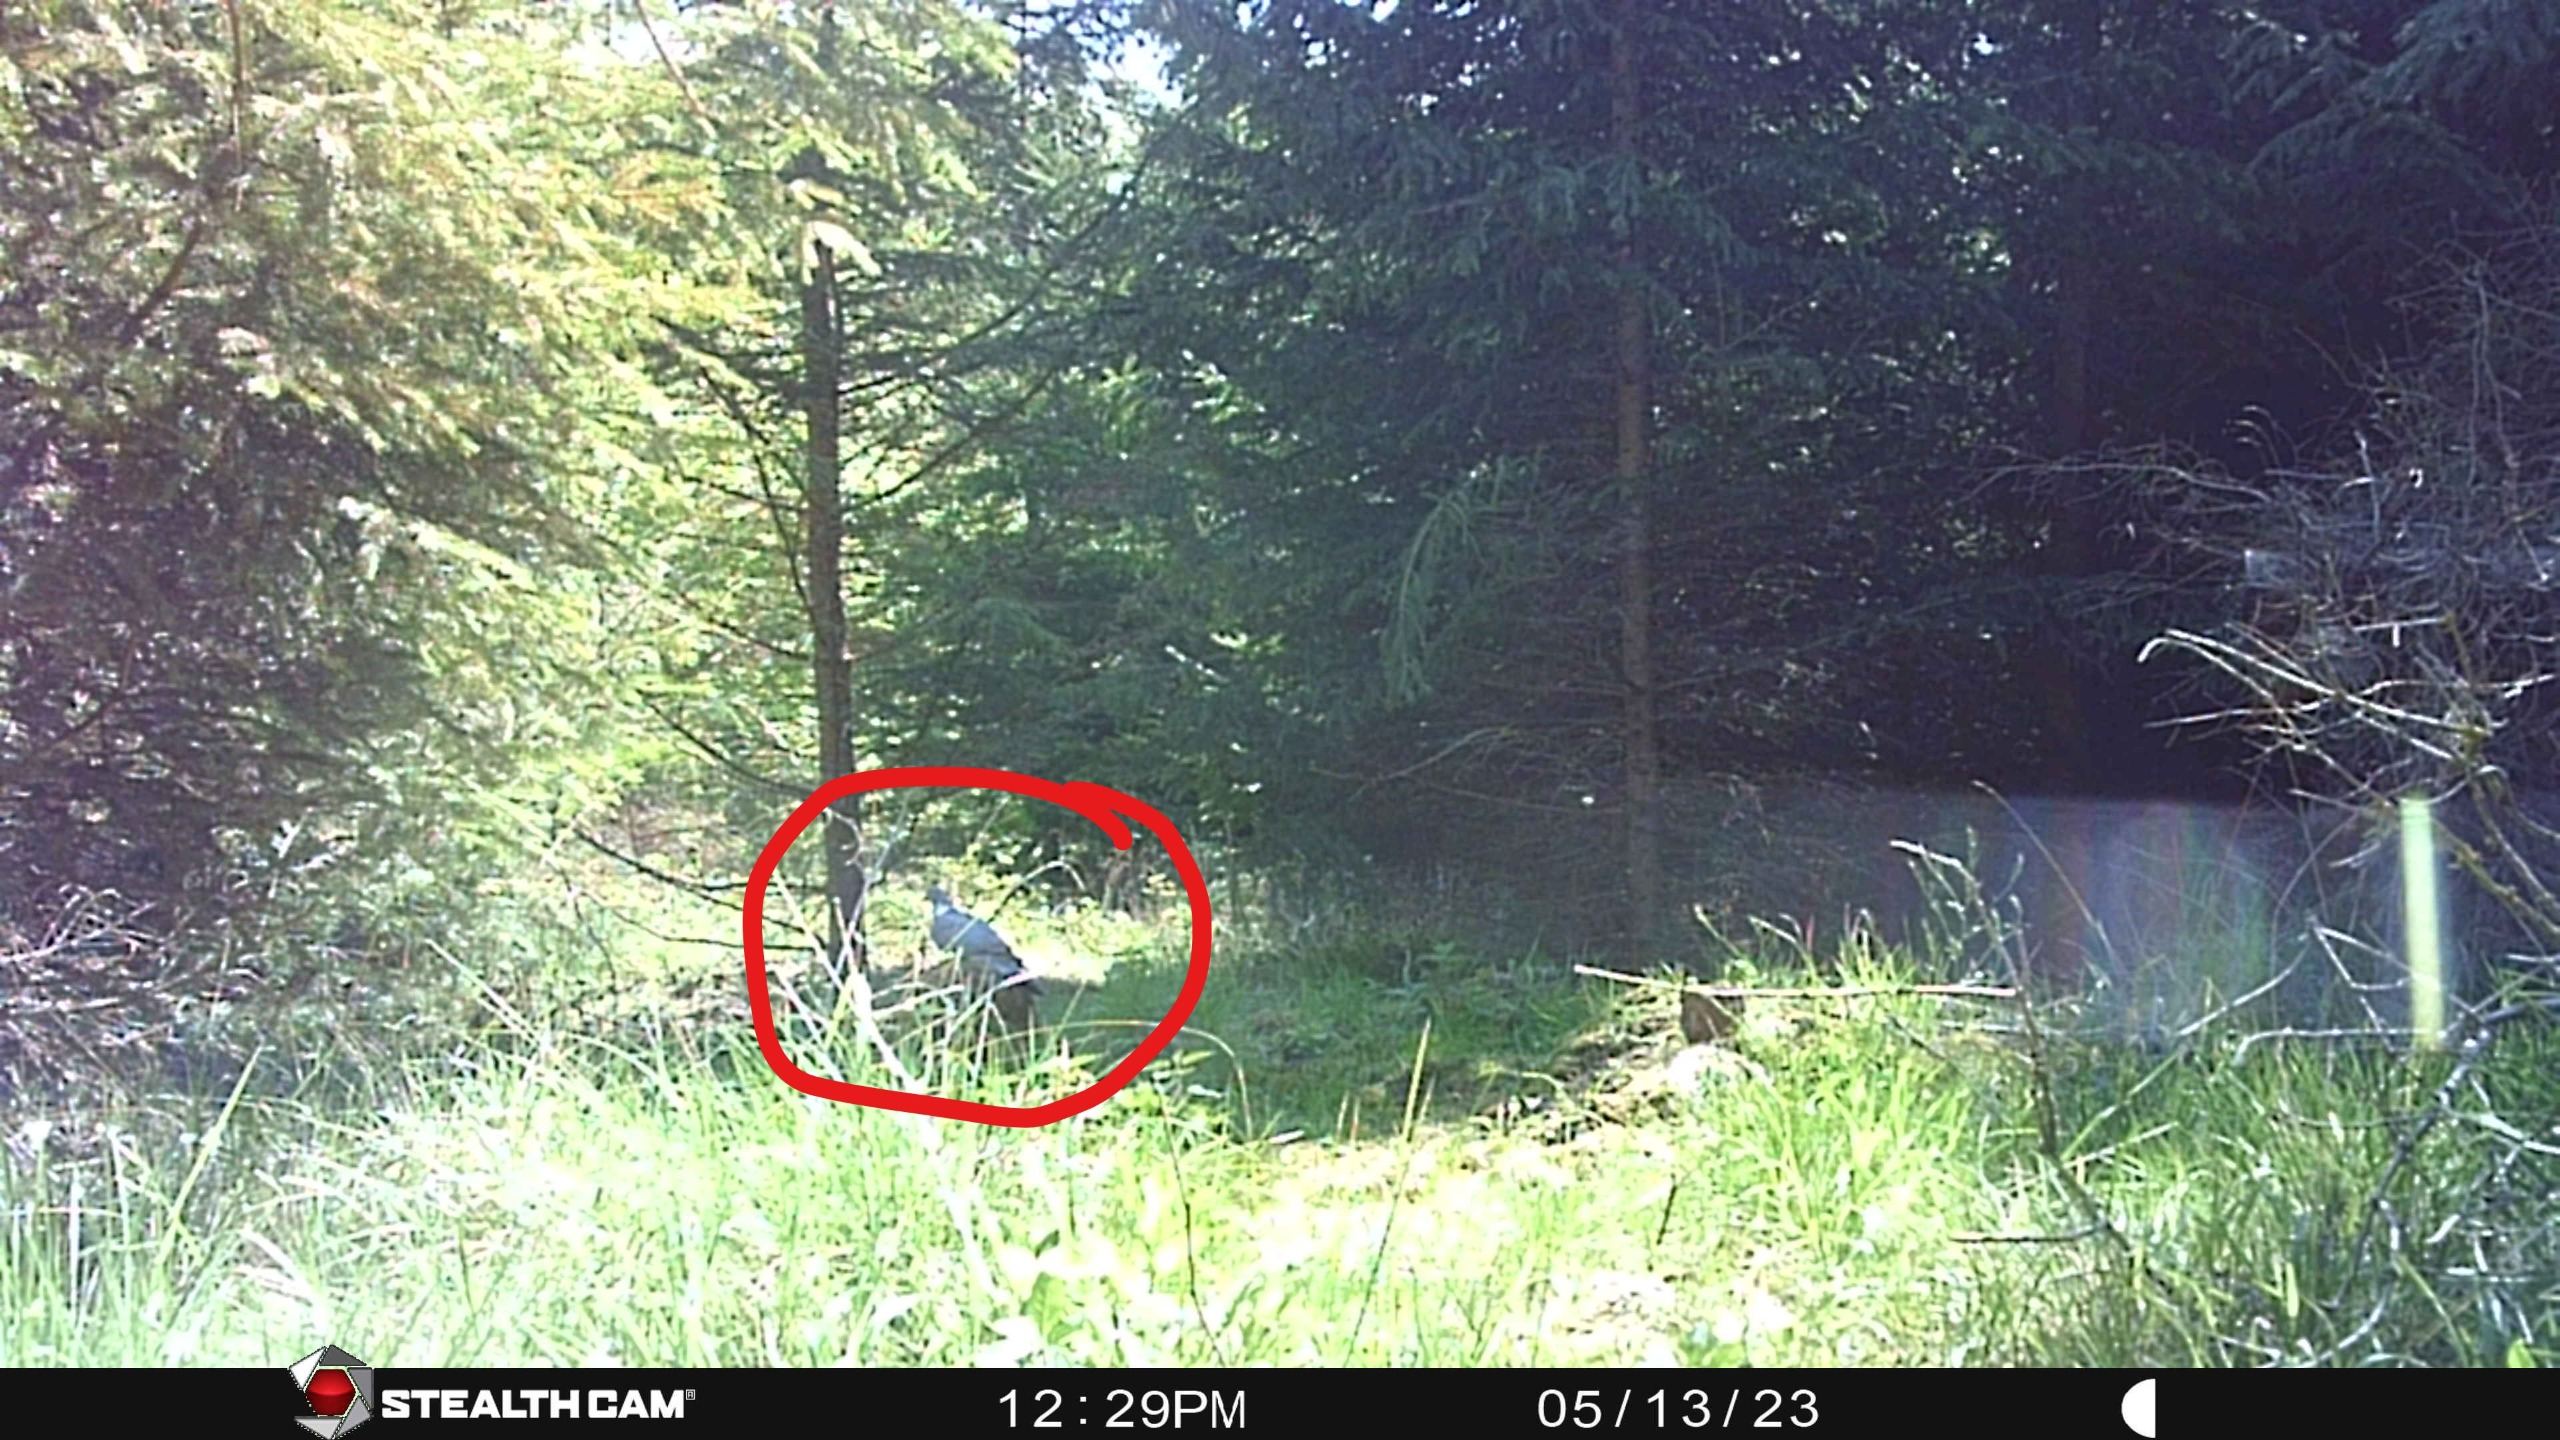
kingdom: Animalia
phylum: Chordata
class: Aves
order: Columbiformes
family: Columbidae
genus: Columba
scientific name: Columba palumbus
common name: Ringdue
